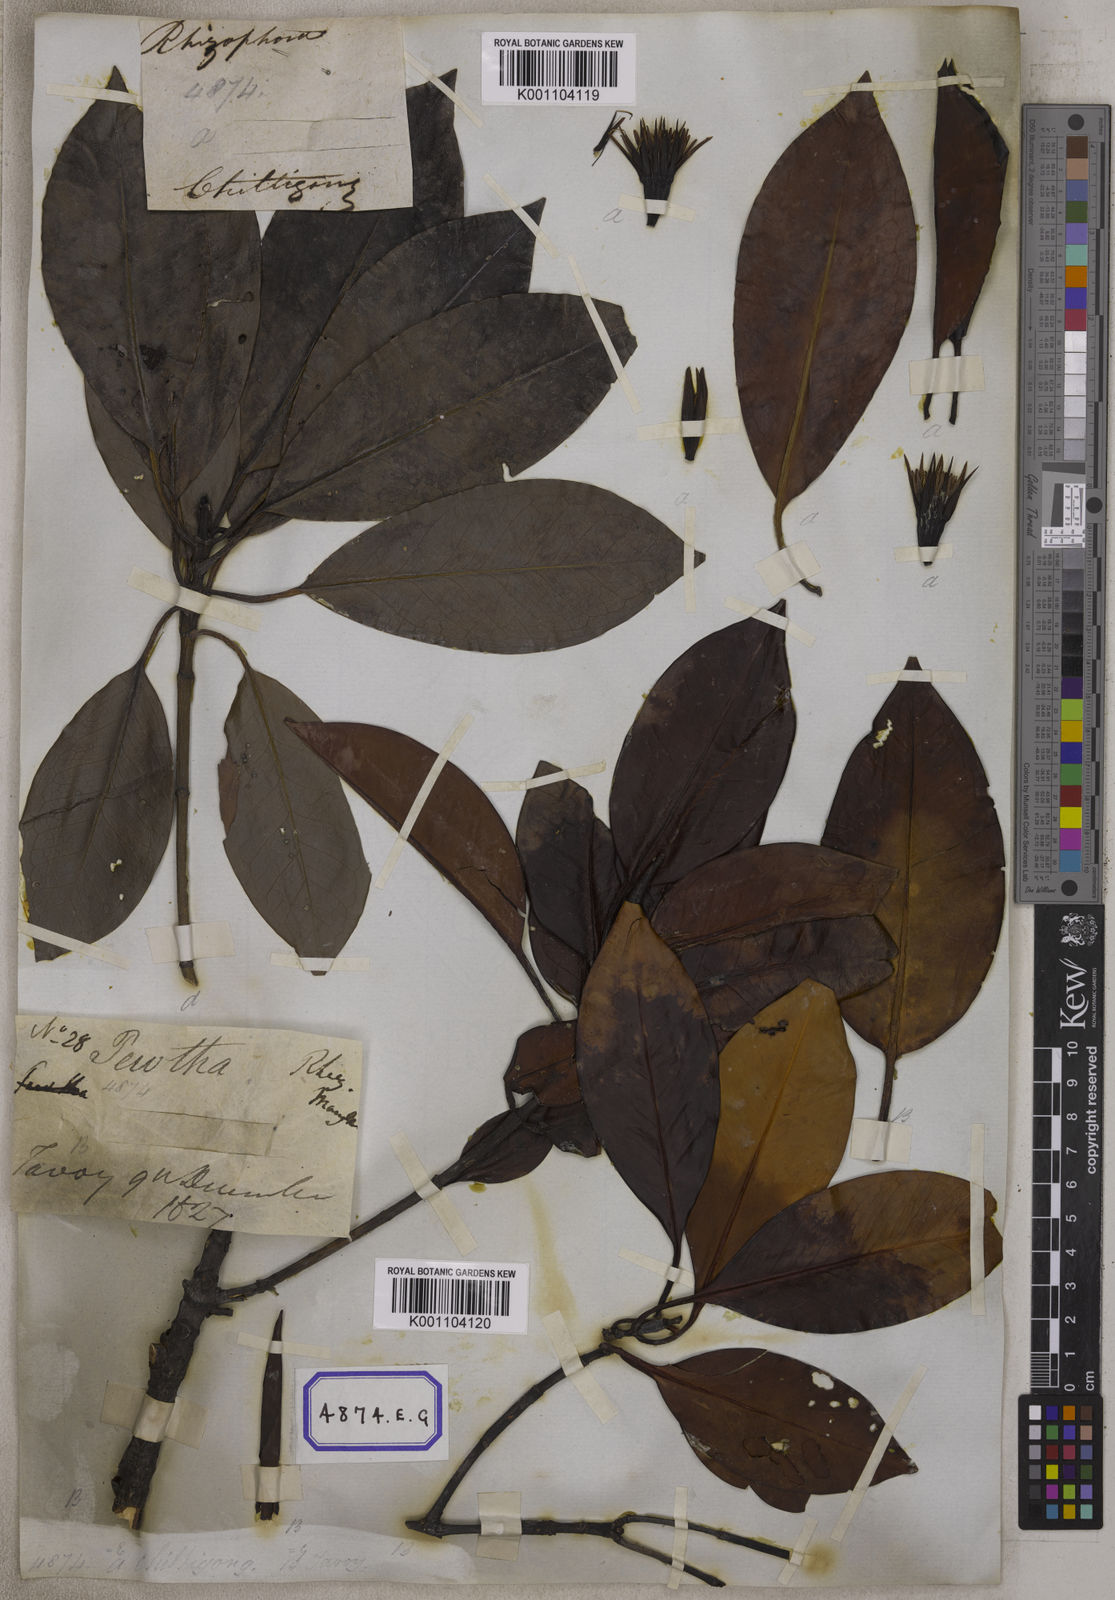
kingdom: Plantae
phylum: Tracheophyta
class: Magnoliopsida
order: Malpighiales
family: Rhizophoraceae
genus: Bruguiera
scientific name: Bruguiera gymnorhiza
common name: Oriental mangrove
